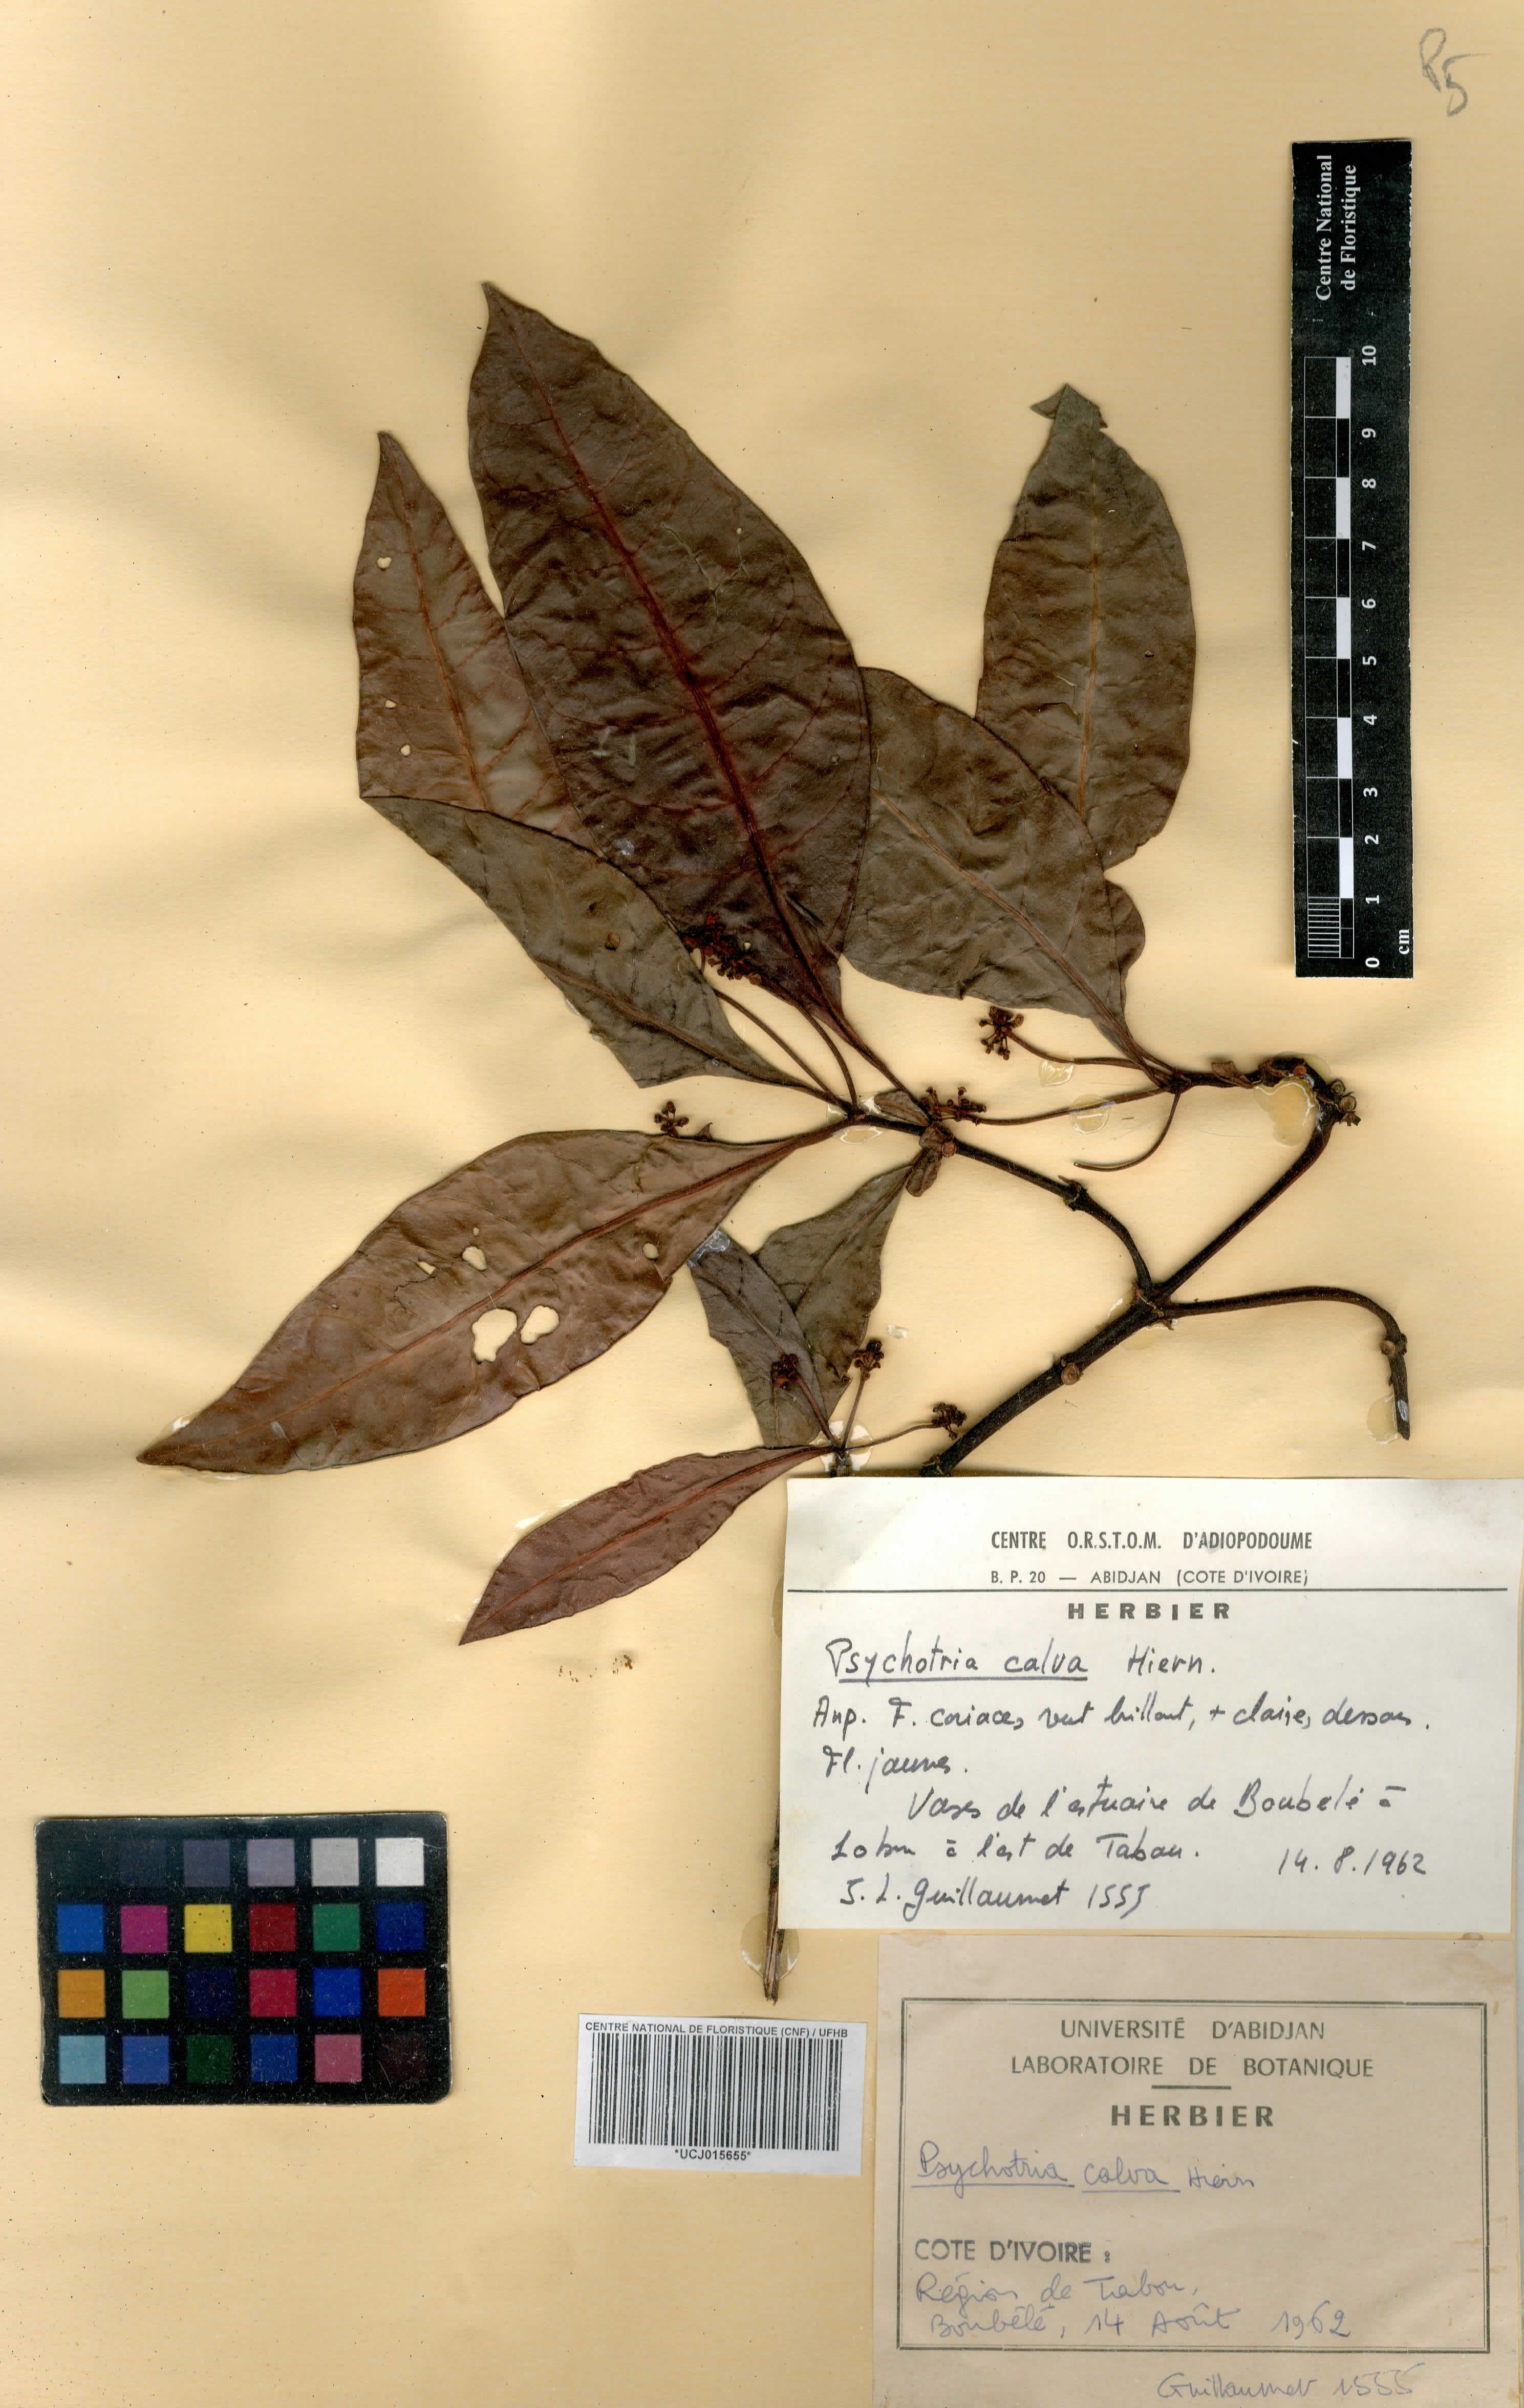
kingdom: Plantae
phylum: Tracheophyta
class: Magnoliopsida
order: Gentianales
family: Rubiaceae
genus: Psychotria
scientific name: Psychotria calva
